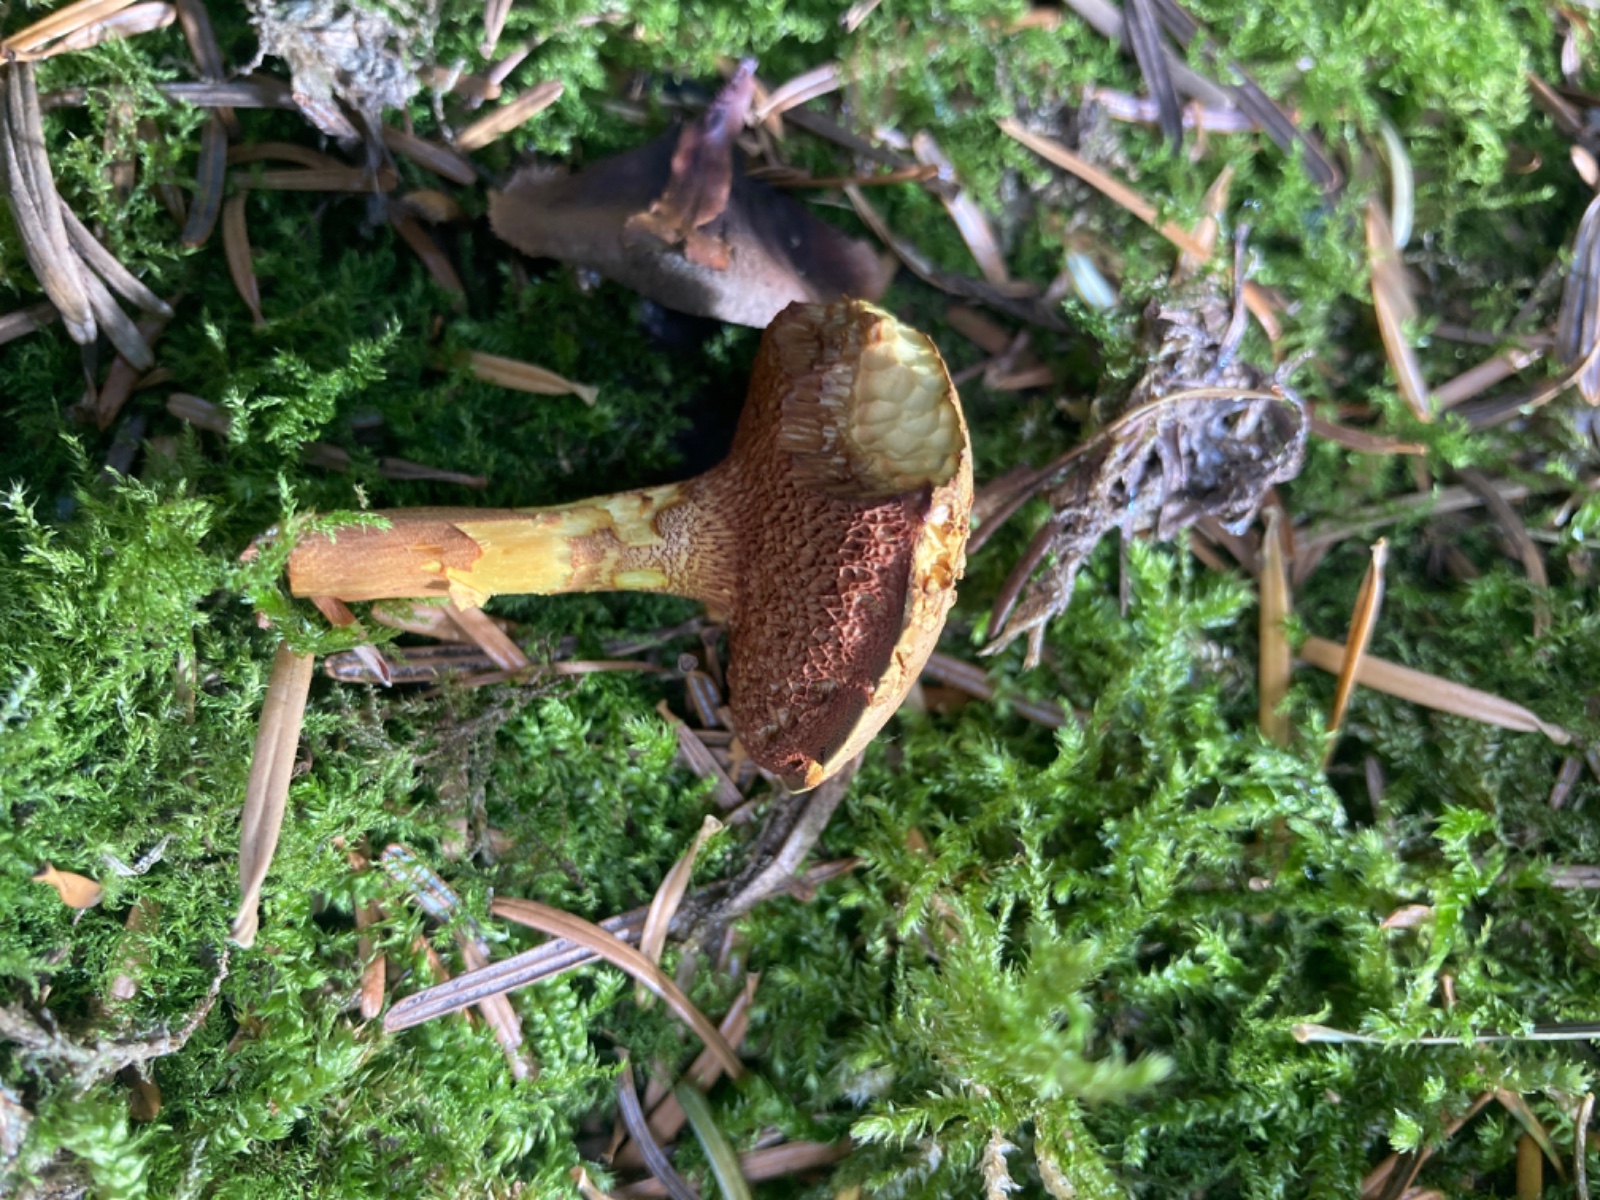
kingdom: Fungi
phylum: Basidiomycota
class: Agaricomycetes
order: Boletales
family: Boletaceae
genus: Chalciporus
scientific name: Chalciporus piperatus
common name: peberrørhat
